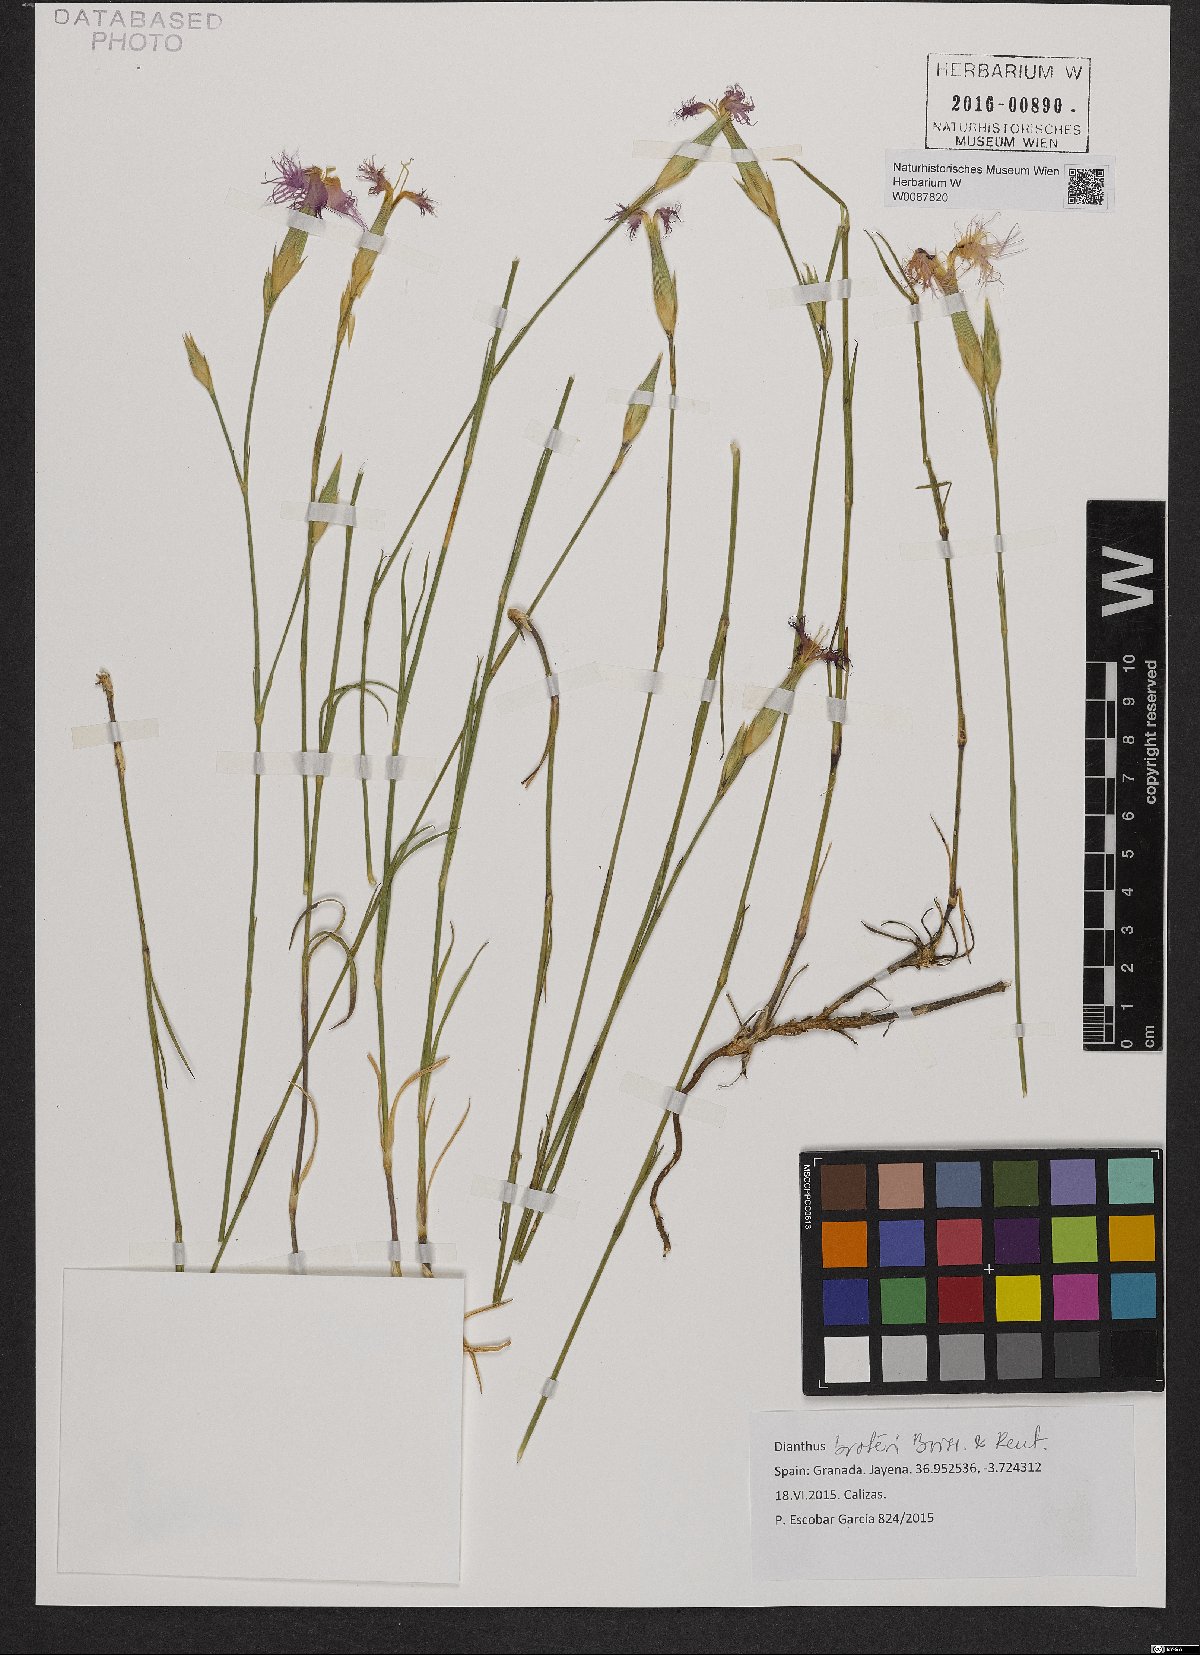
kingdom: Plantae
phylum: Tracheophyta
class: Magnoliopsida
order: Caryophyllales
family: Caryophyllaceae
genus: Dianthus
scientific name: Dianthus broteri
